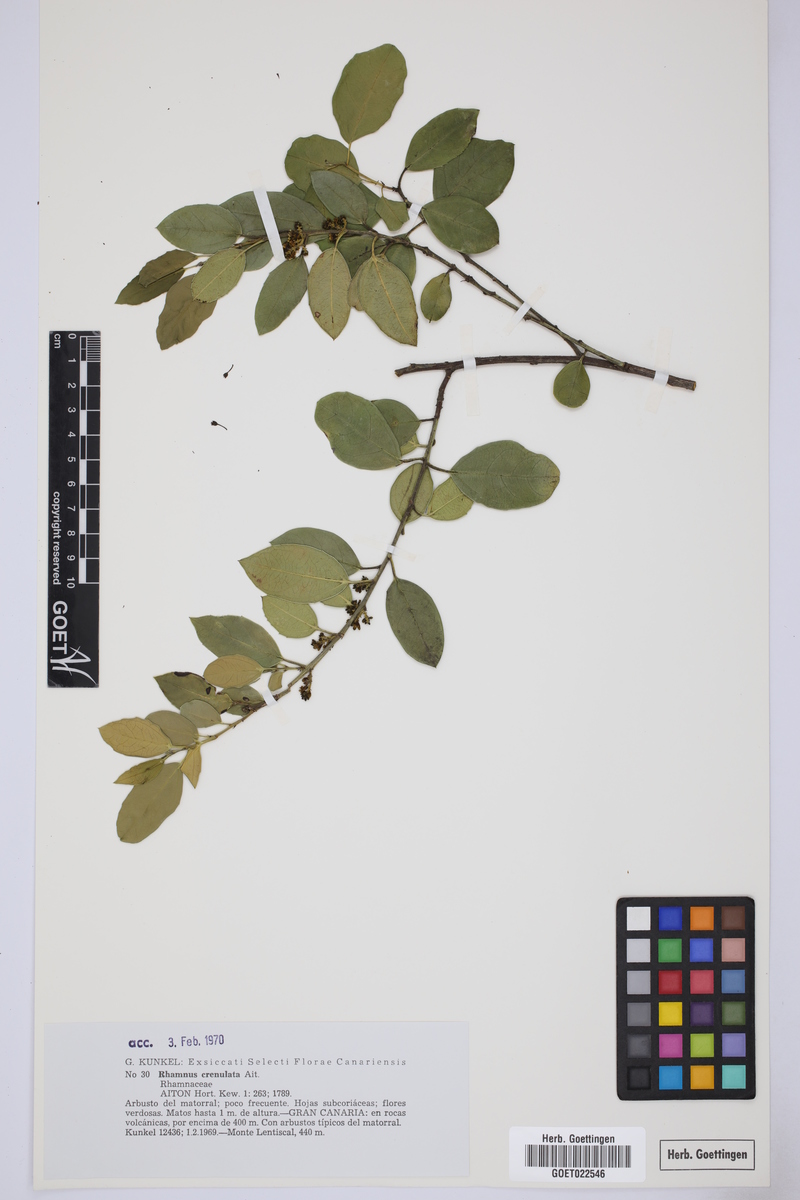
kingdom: Plantae
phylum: Tracheophyta
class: Magnoliopsida
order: Rosales
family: Rhamnaceae
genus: Rhamnus
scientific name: Rhamnus crenulata
